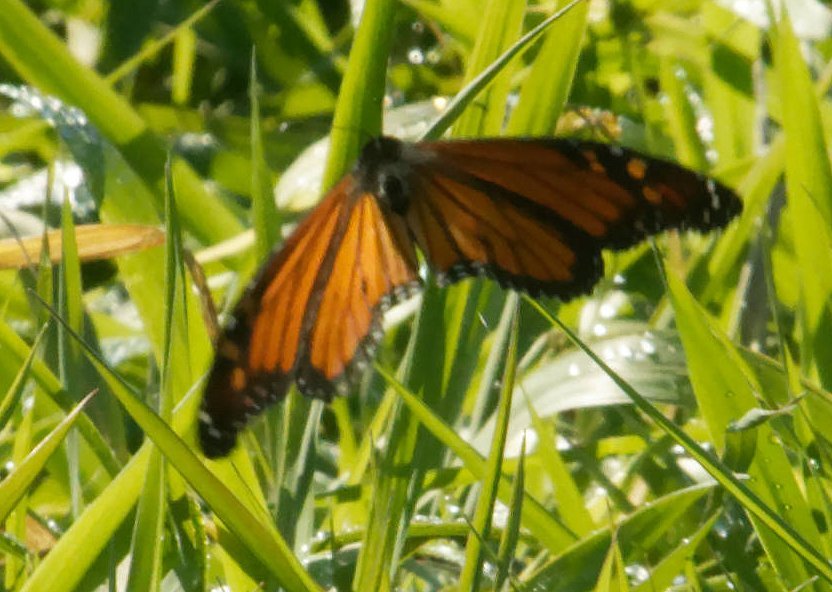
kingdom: Animalia
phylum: Arthropoda
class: Insecta
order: Lepidoptera
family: Nymphalidae
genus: Danaus
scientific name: Danaus plexippus
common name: Monarch
